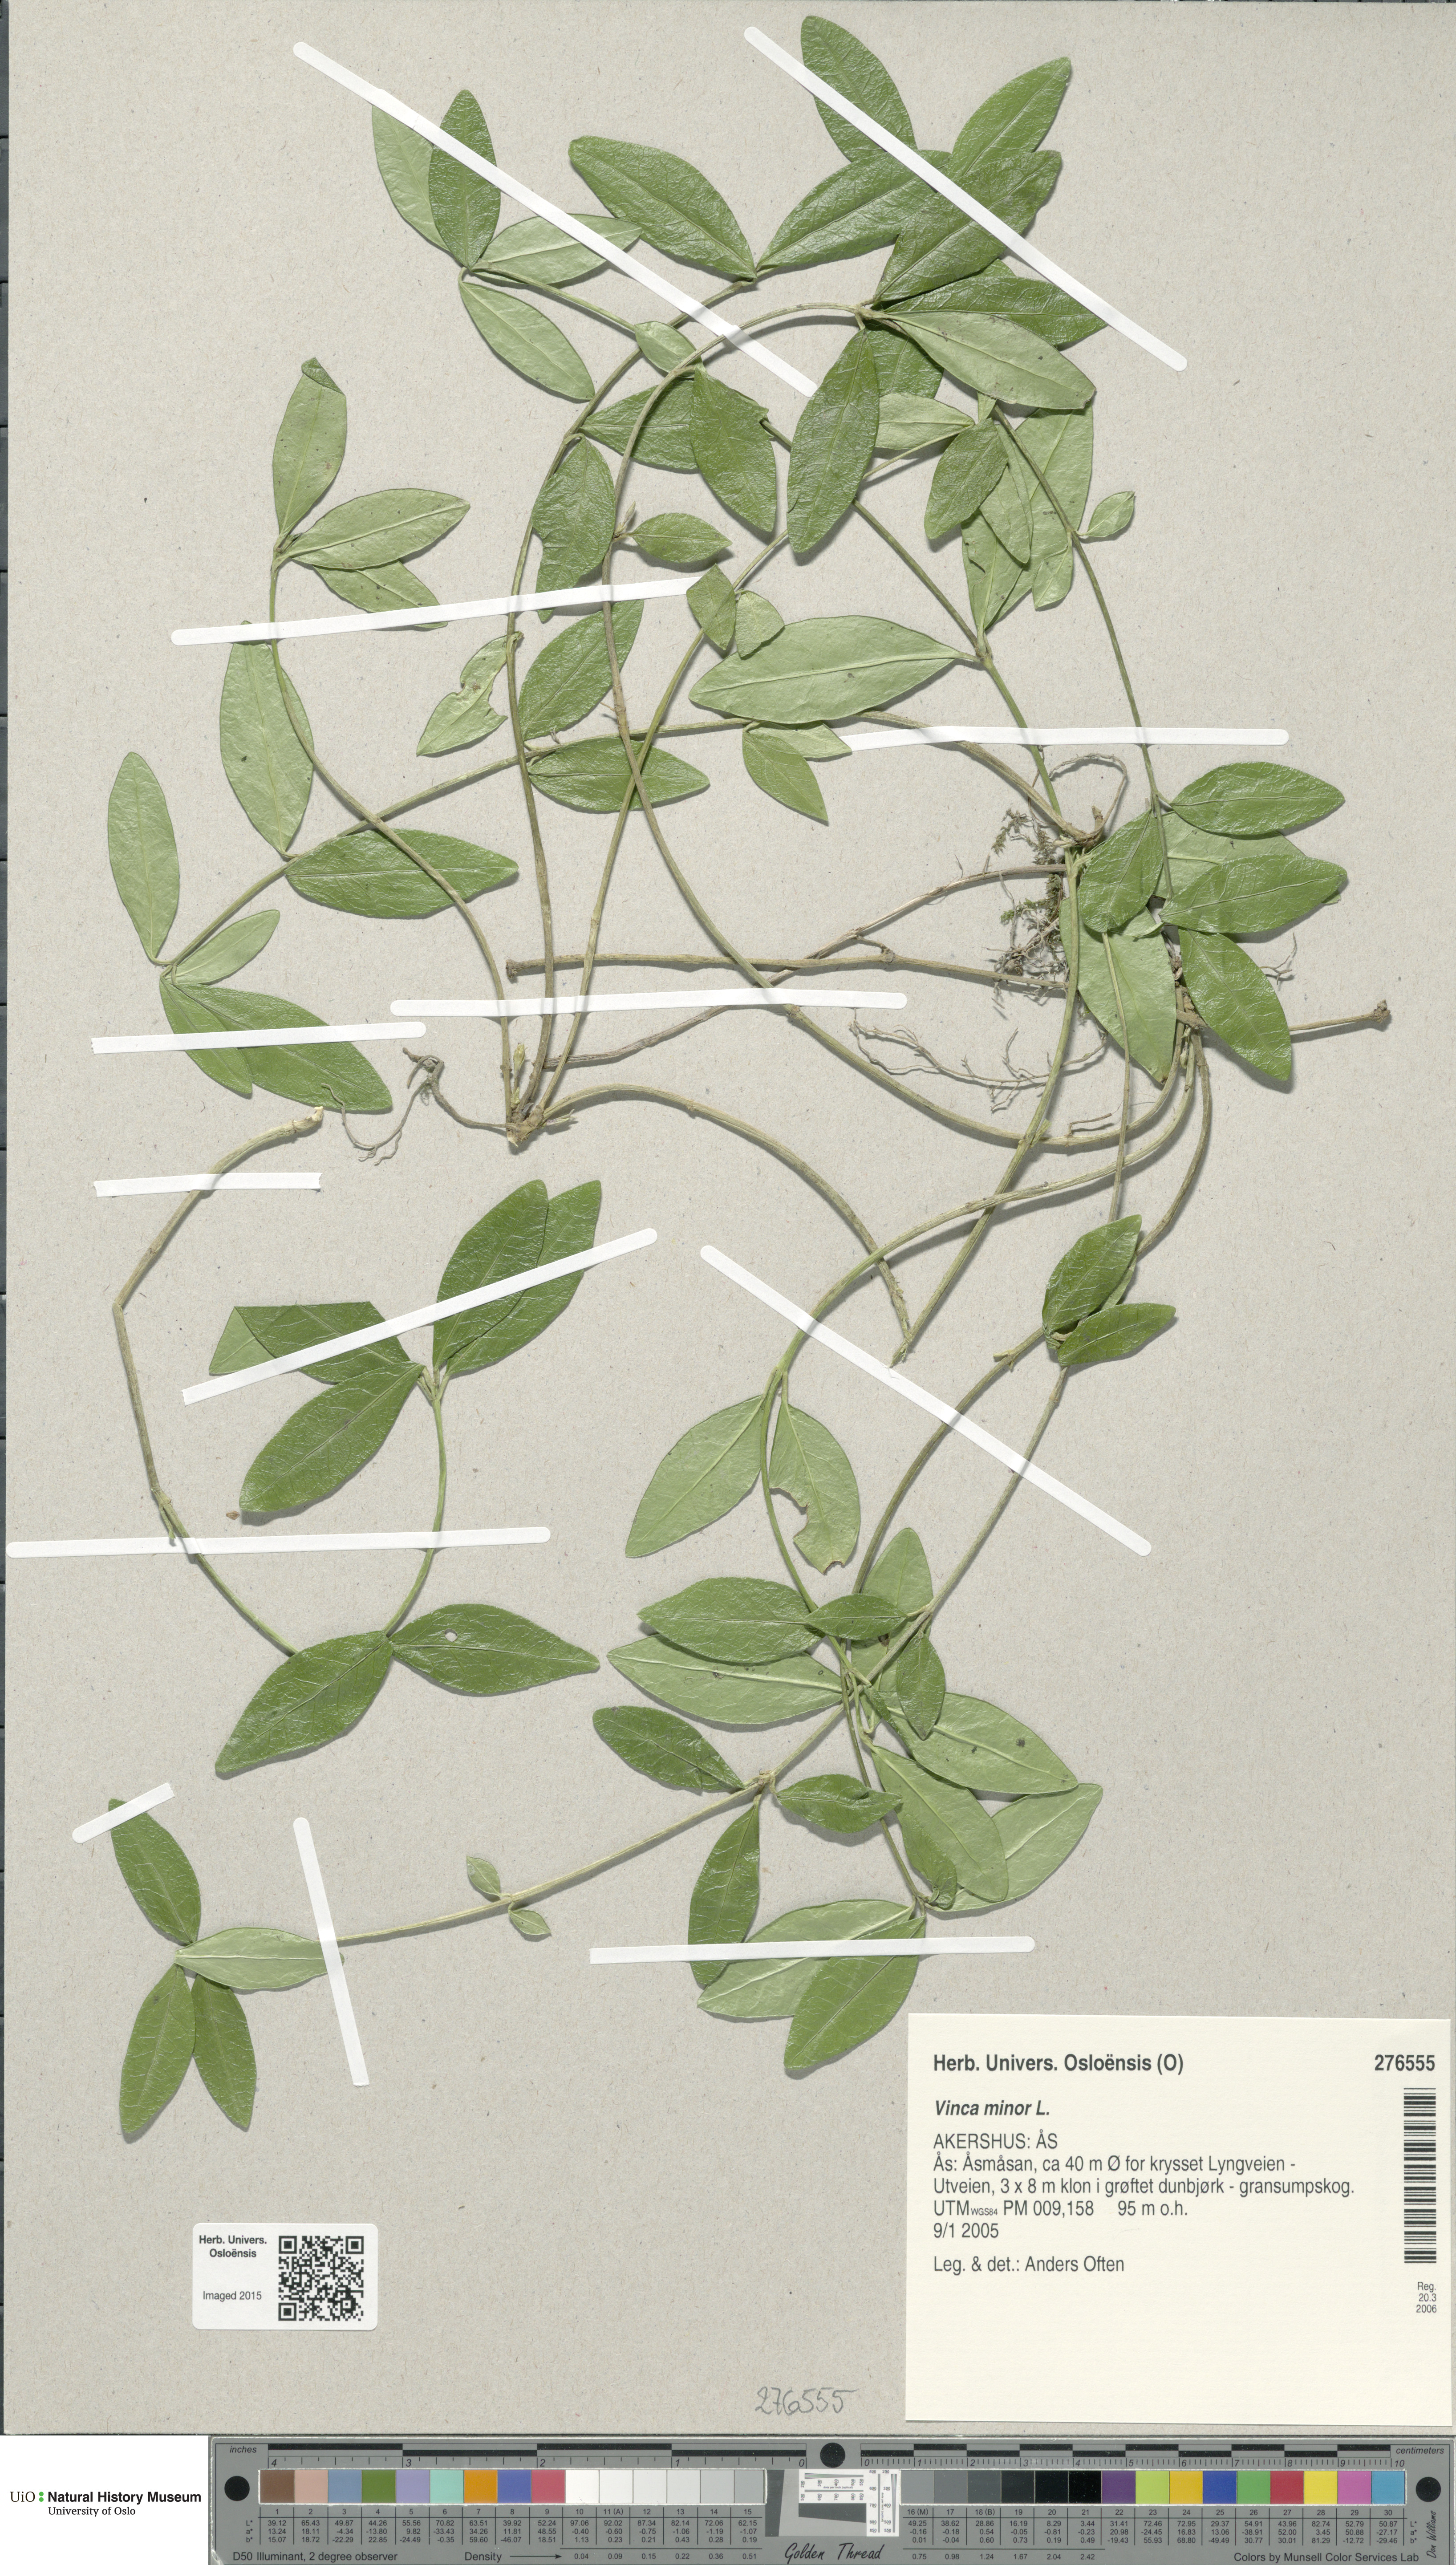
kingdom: Plantae
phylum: Tracheophyta
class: Magnoliopsida
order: Gentianales
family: Apocynaceae
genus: Vinca
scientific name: Vinca minor
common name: Lesser periwinkle
